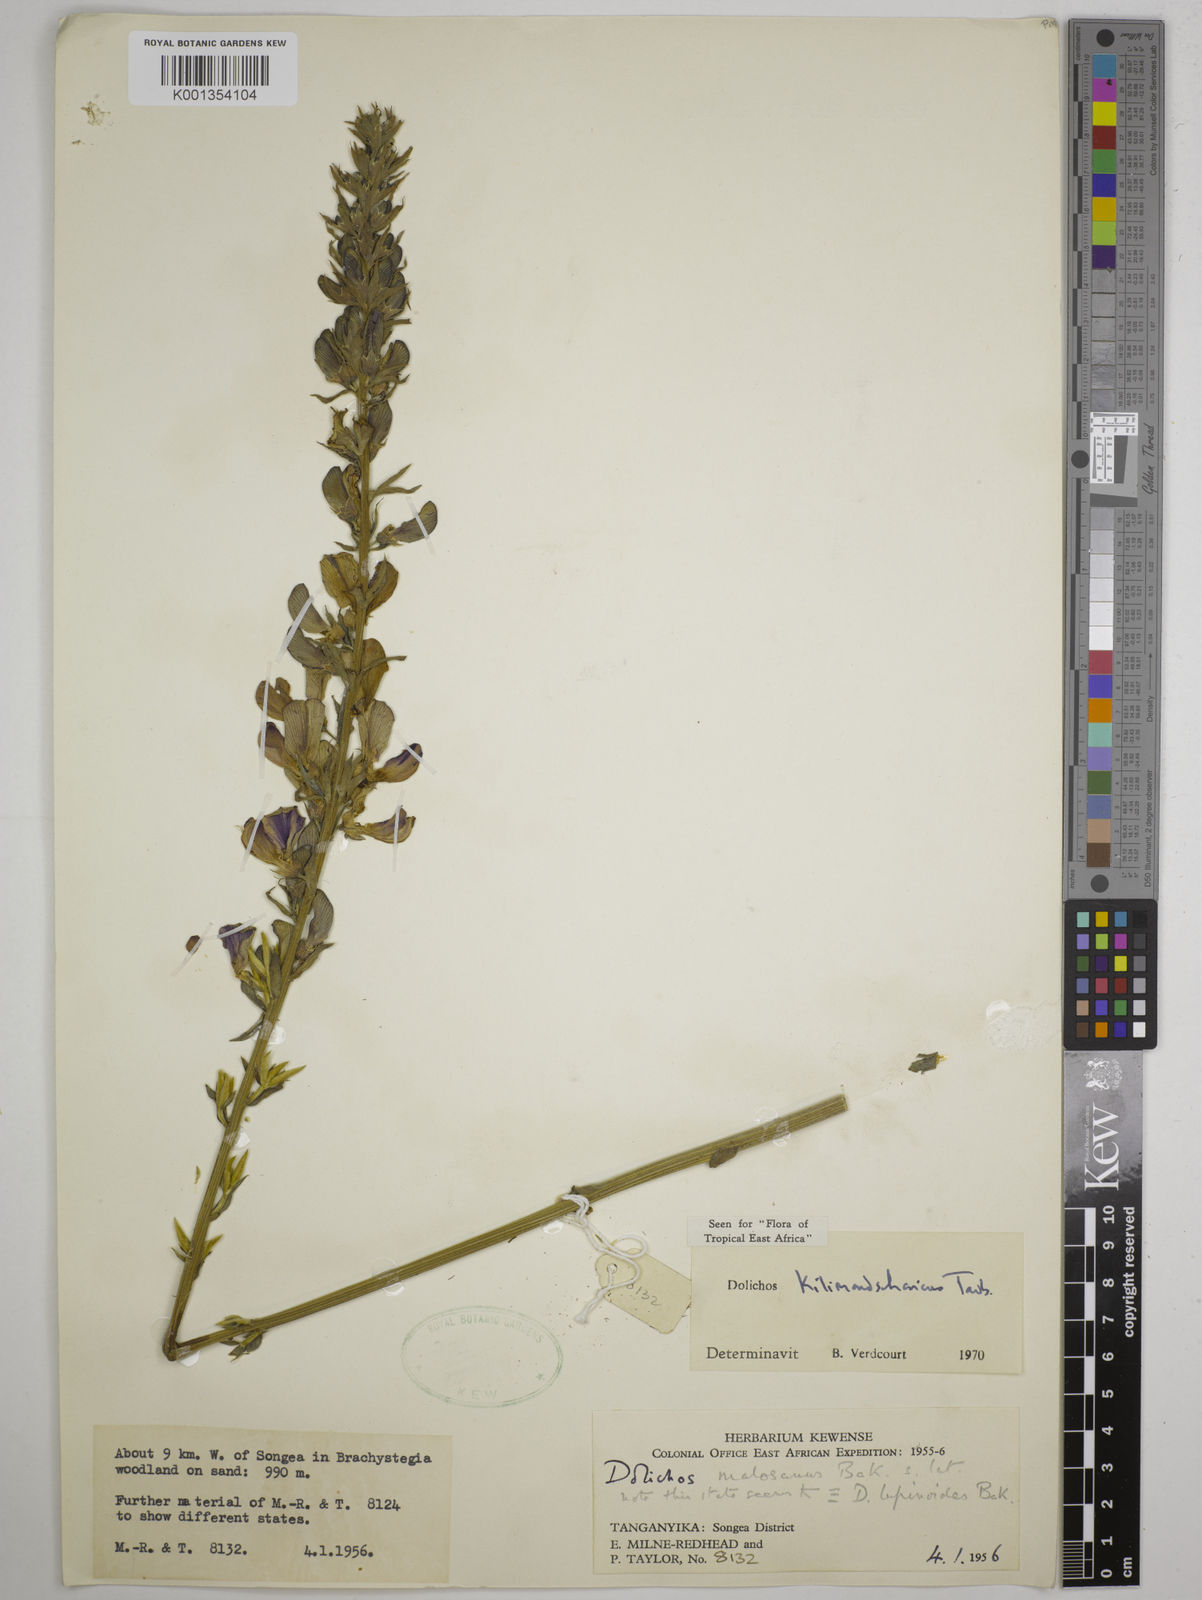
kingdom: Plantae
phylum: Tracheophyta
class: Magnoliopsida
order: Fabales
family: Fabaceae
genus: Dolichos
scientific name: Dolichos kilimandscharicus
